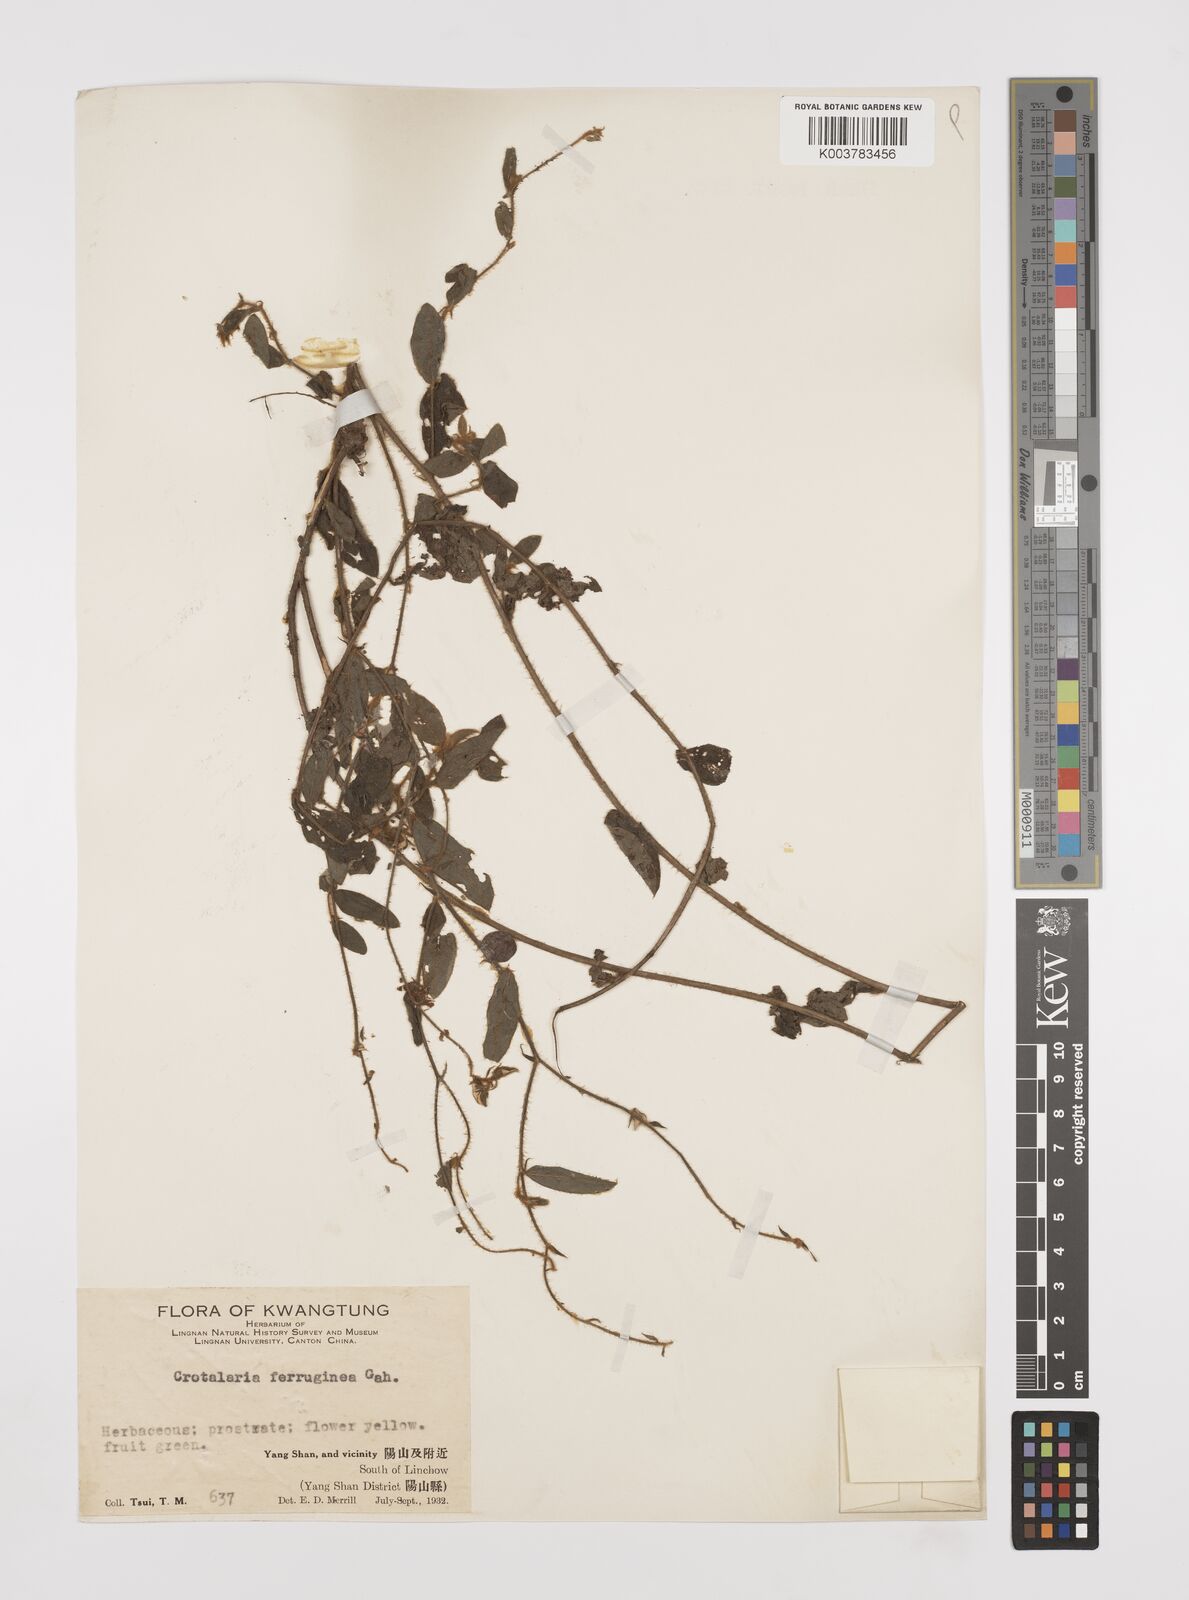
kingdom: Plantae
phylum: Tracheophyta
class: Magnoliopsida
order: Fabales
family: Fabaceae
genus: Crotalaria
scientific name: Crotalaria lejoloba
